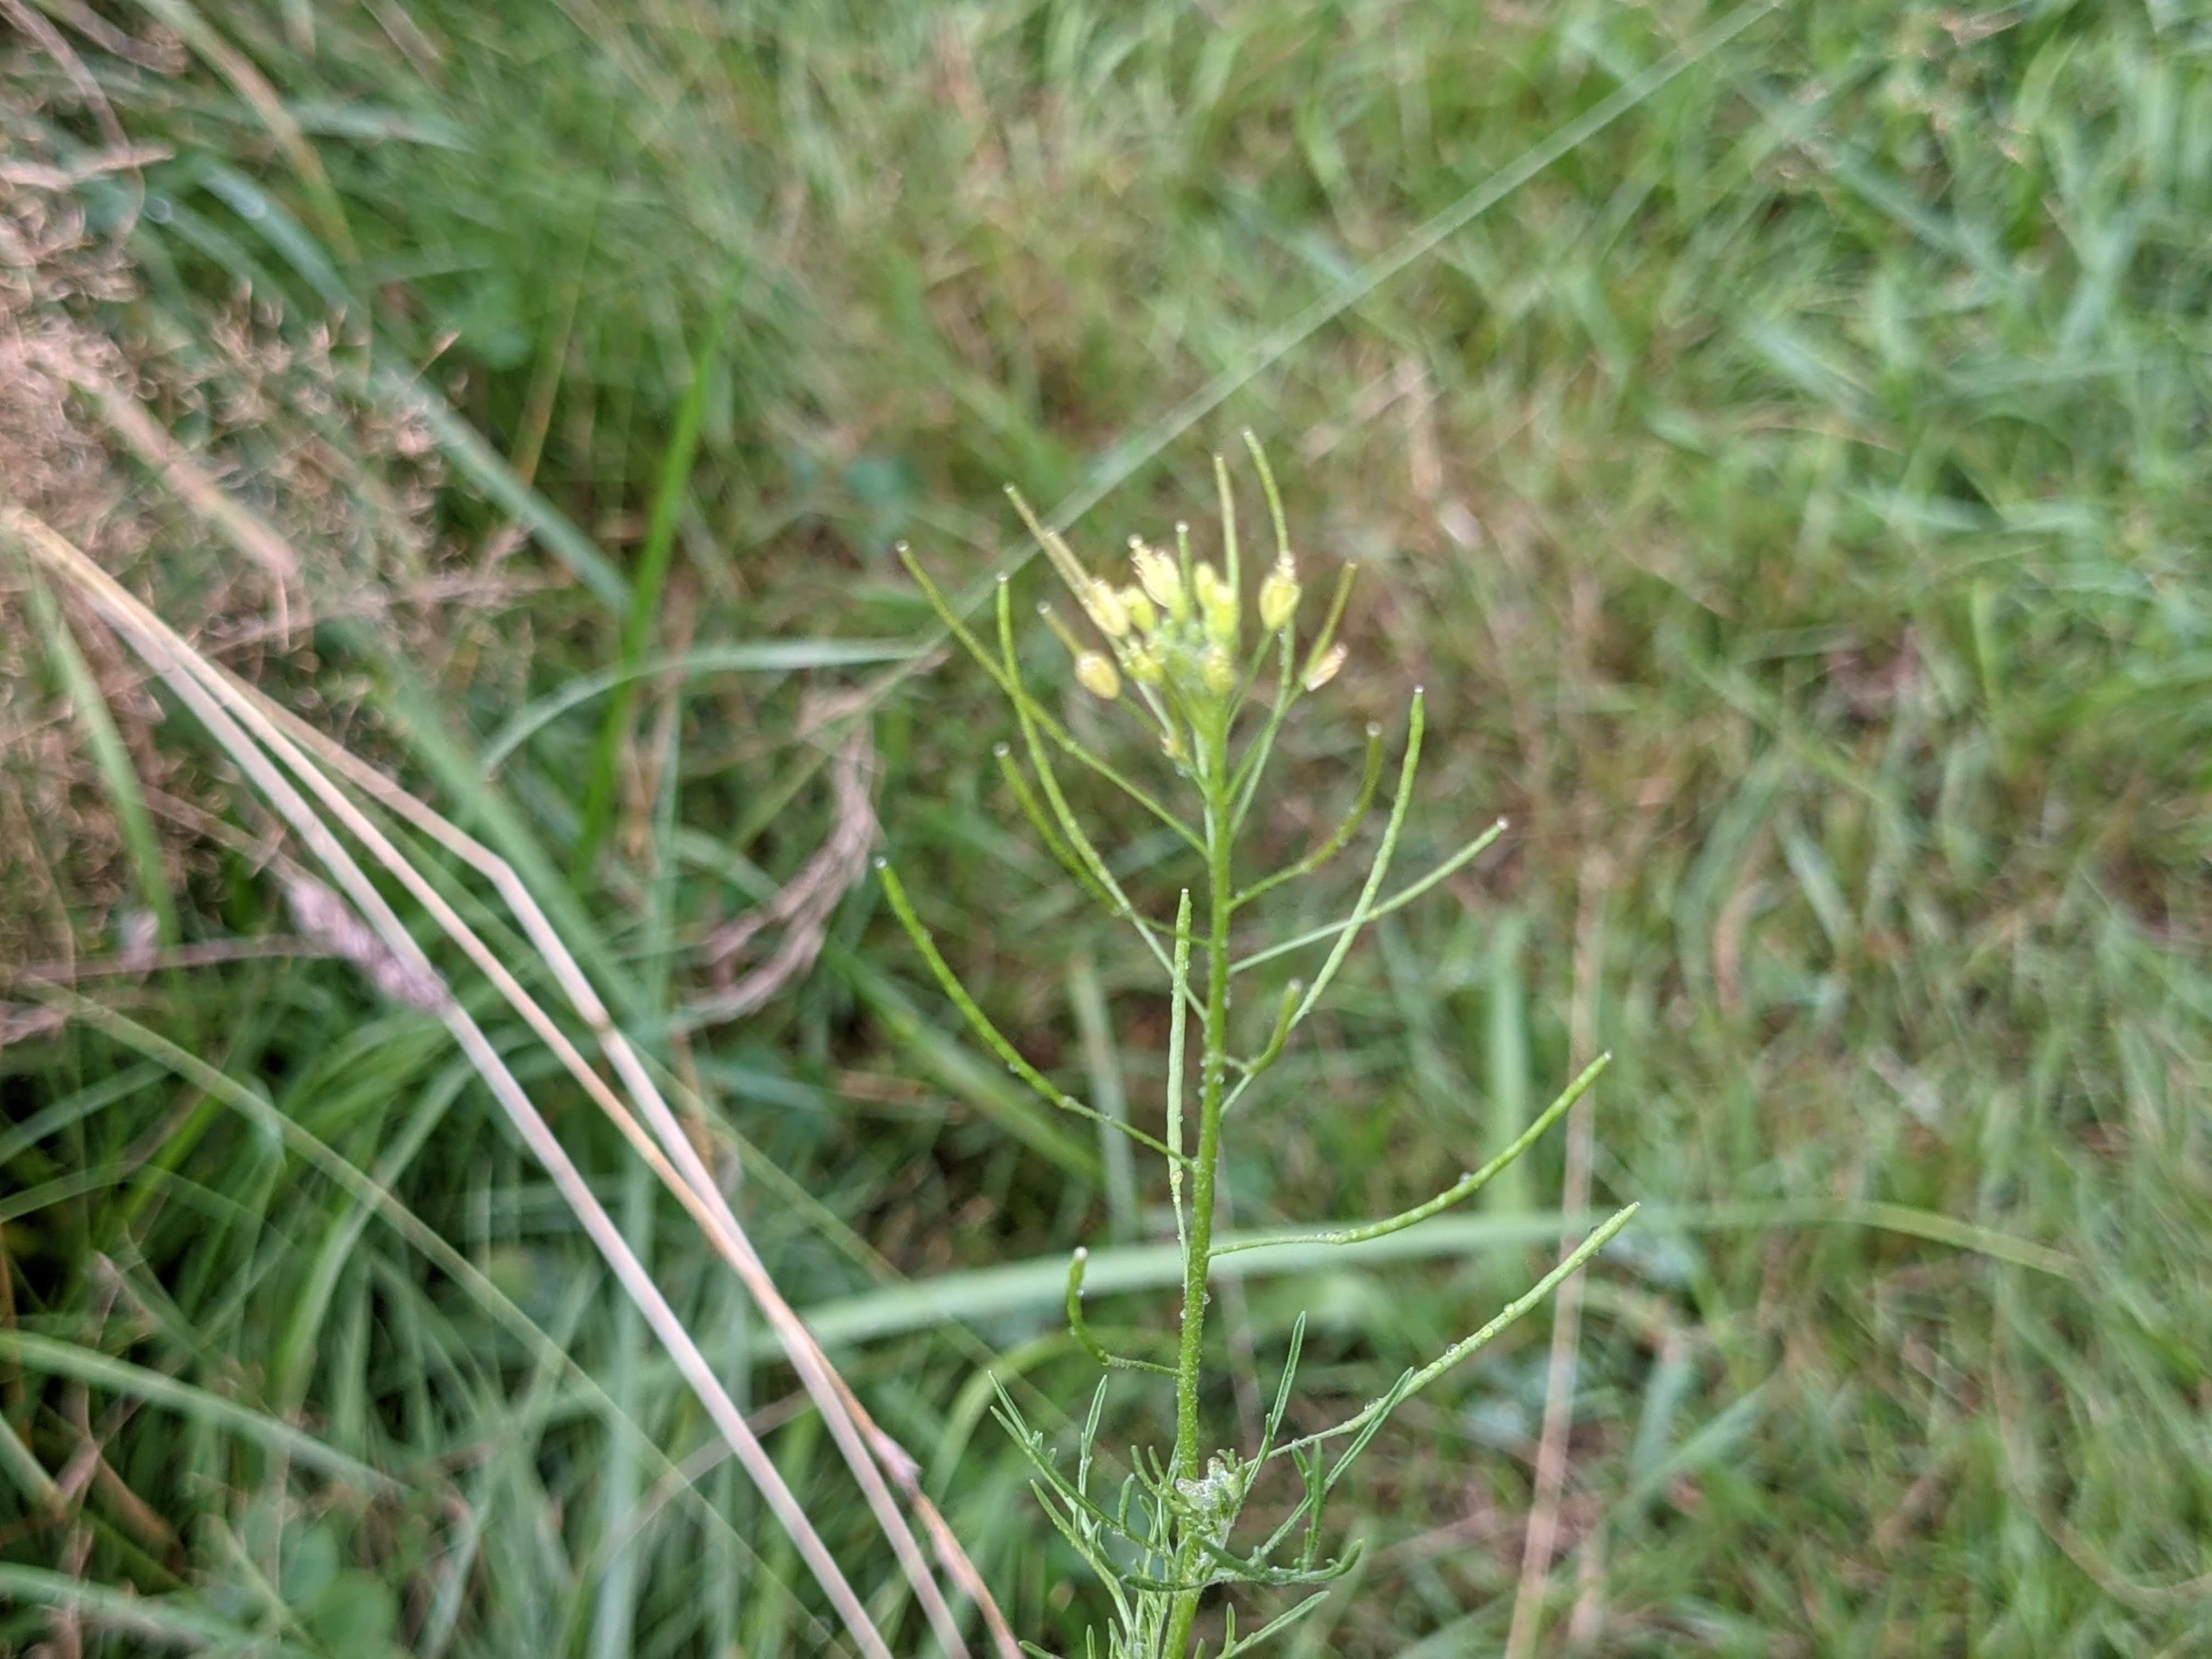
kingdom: Plantae
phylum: Tracheophyta
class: Magnoliopsida
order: Brassicales
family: Brassicaceae
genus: Descurainia
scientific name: Descurainia sophia
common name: Finbladet vejsennep
